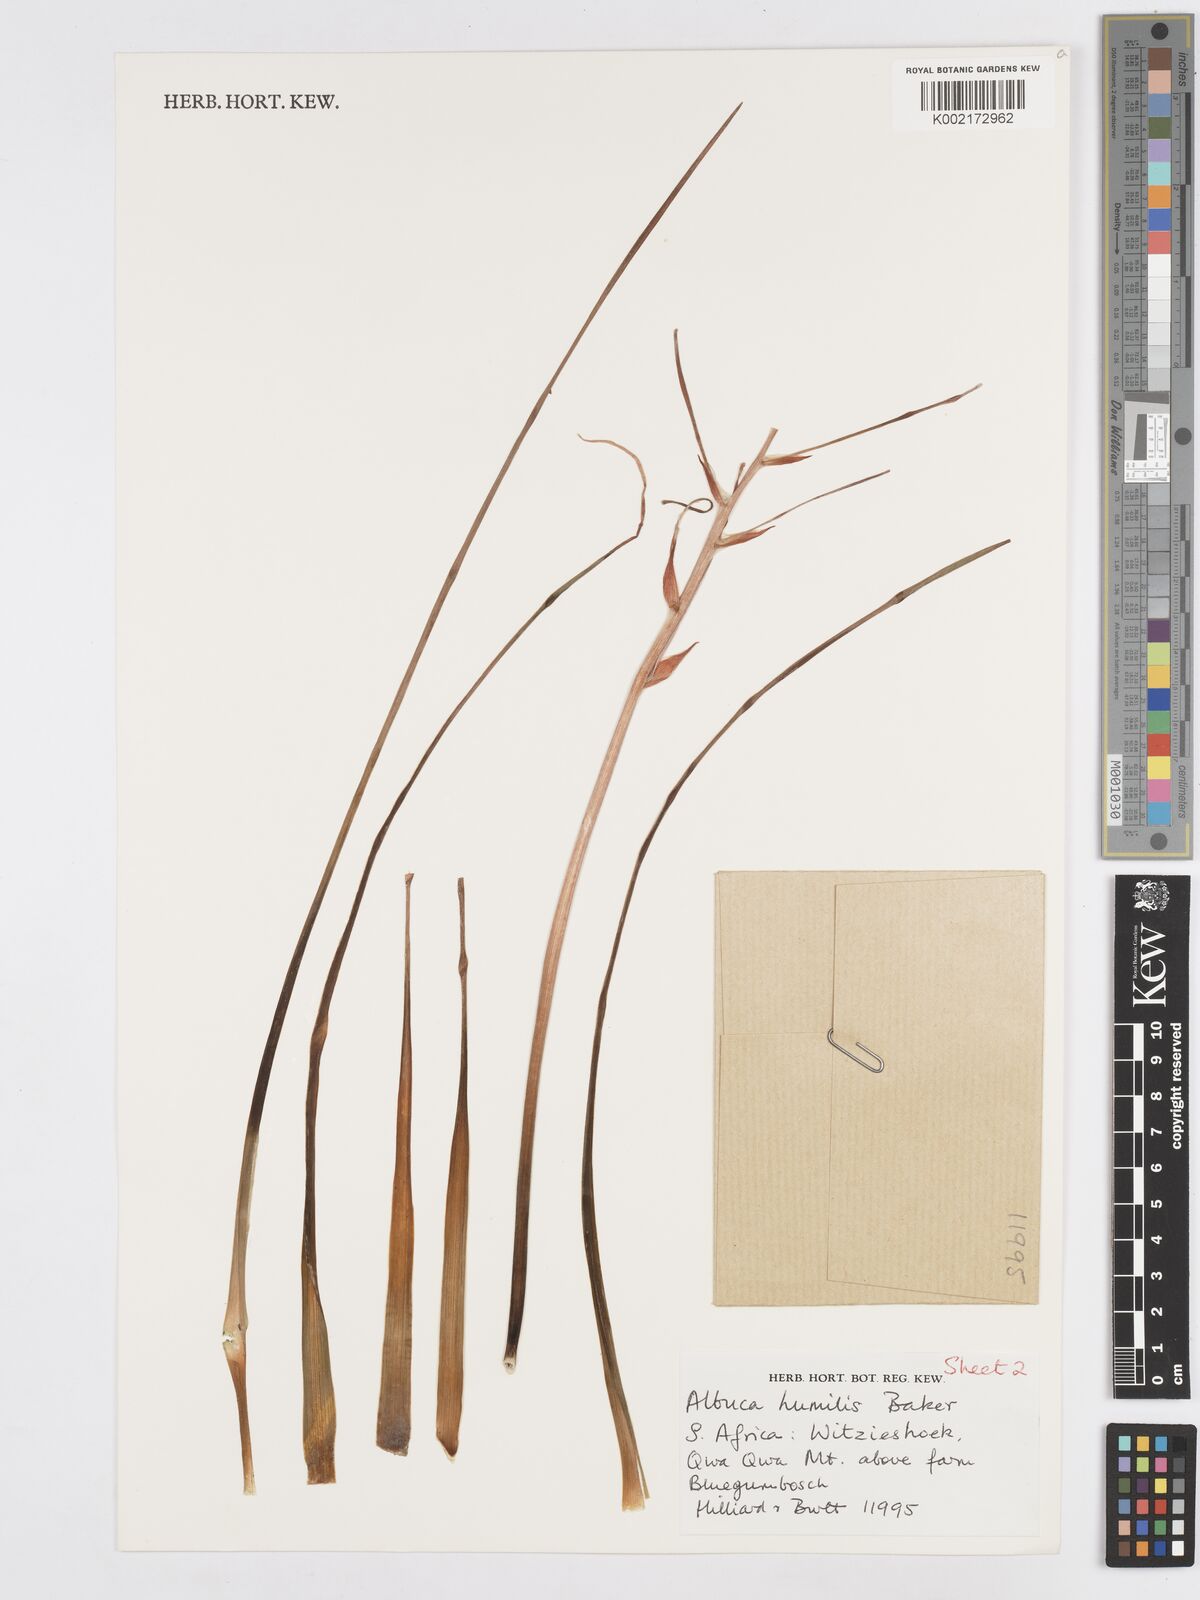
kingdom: Plantae
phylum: Tracheophyta
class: Liliopsida
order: Asparagales
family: Asparagaceae
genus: Albuca
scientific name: Albuca humilis
